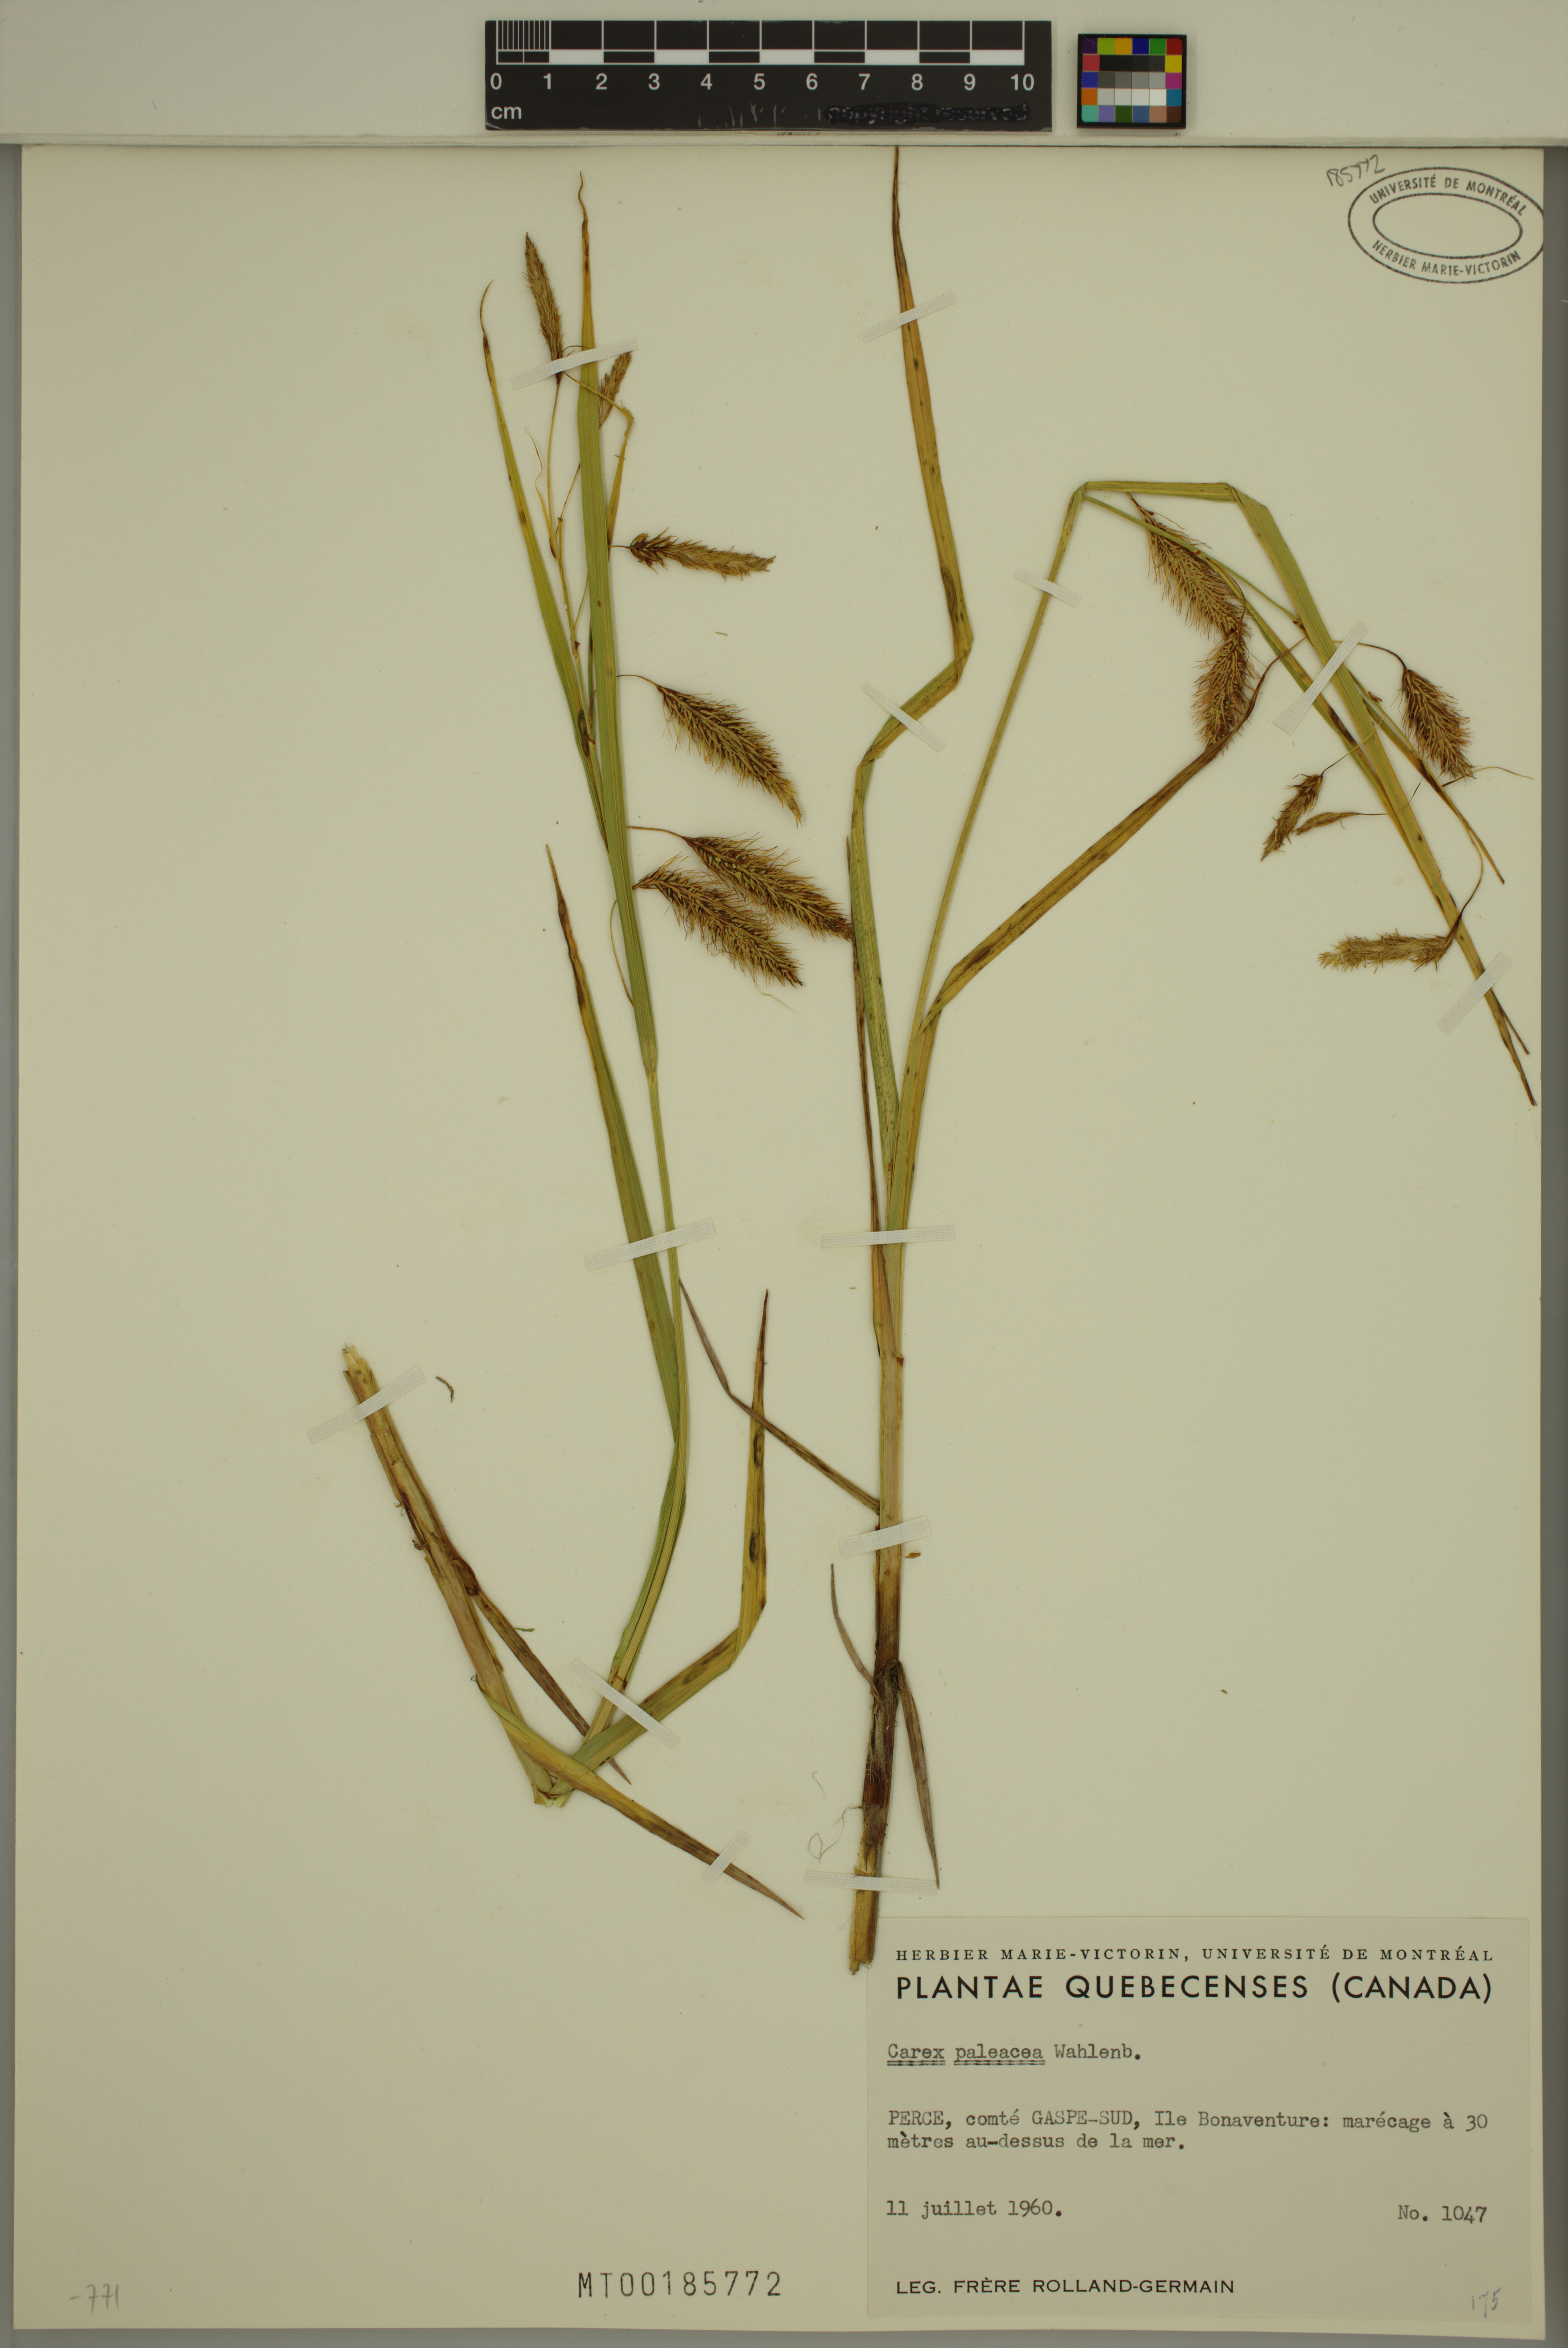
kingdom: Plantae
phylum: Tracheophyta
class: Liliopsida
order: Poales
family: Cyperaceae
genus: Carex
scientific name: Carex paleacea
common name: Chaffy sedge
